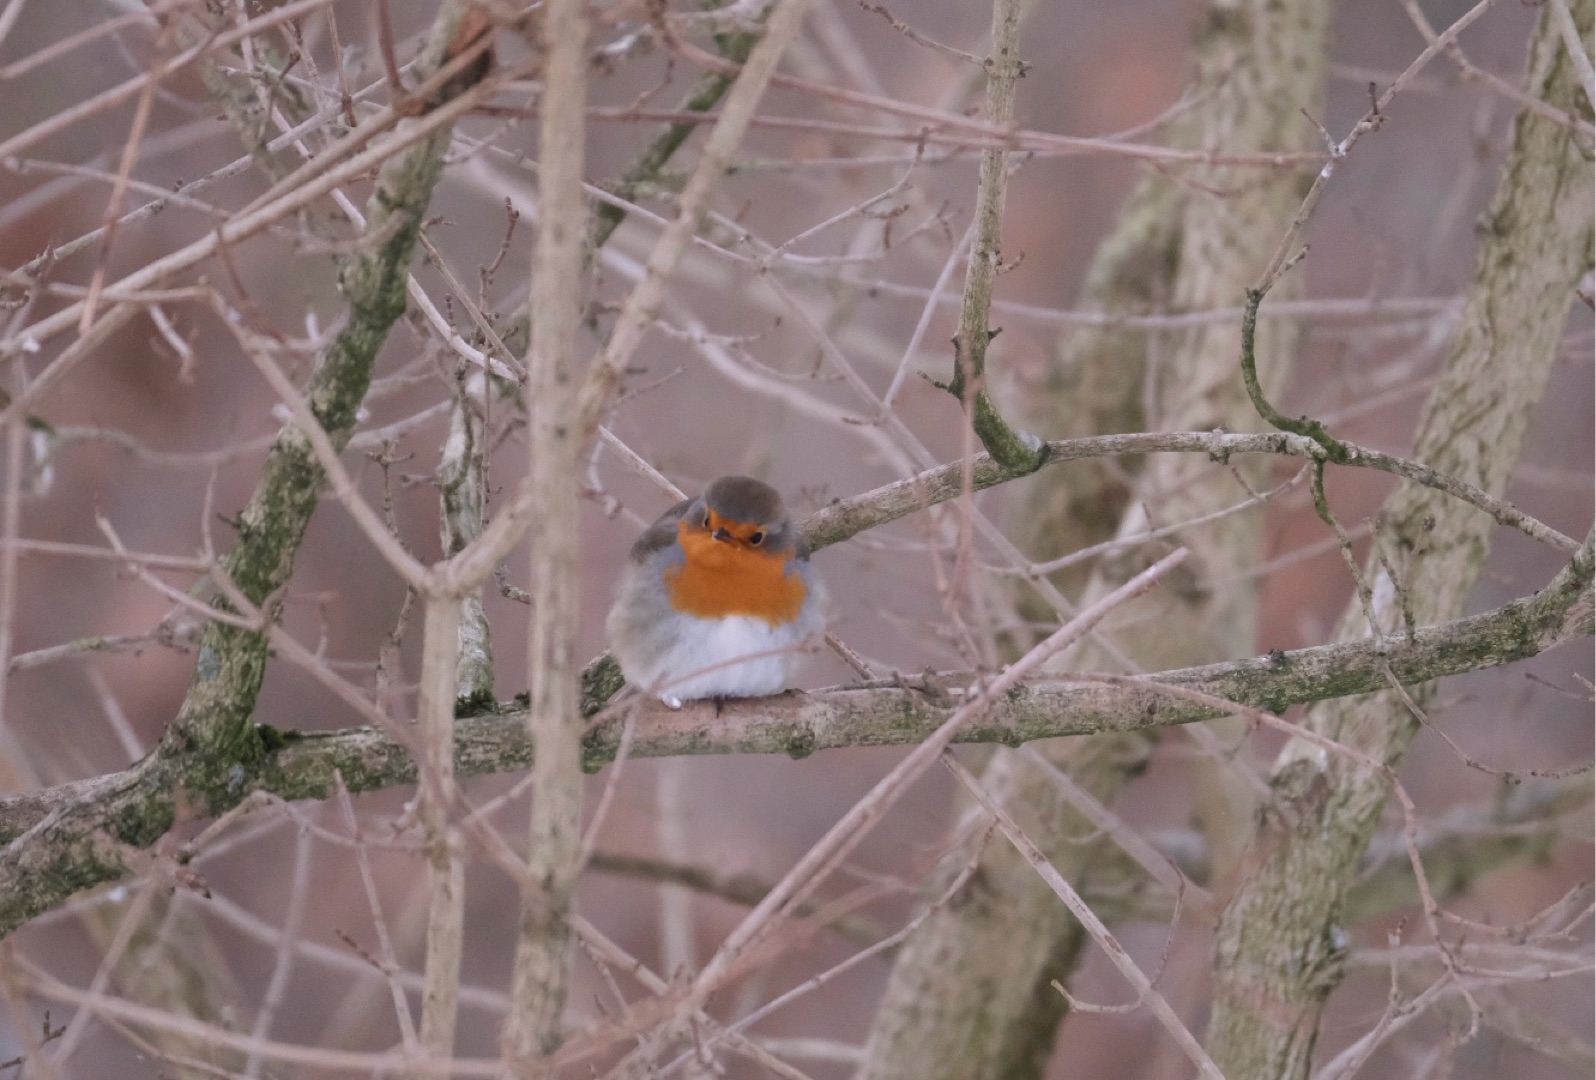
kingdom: Animalia
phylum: Chordata
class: Aves
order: Passeriformes
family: Muscicapidae
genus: Erithacus
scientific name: Erithacus rubecula
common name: Rødhals/rødkælk
